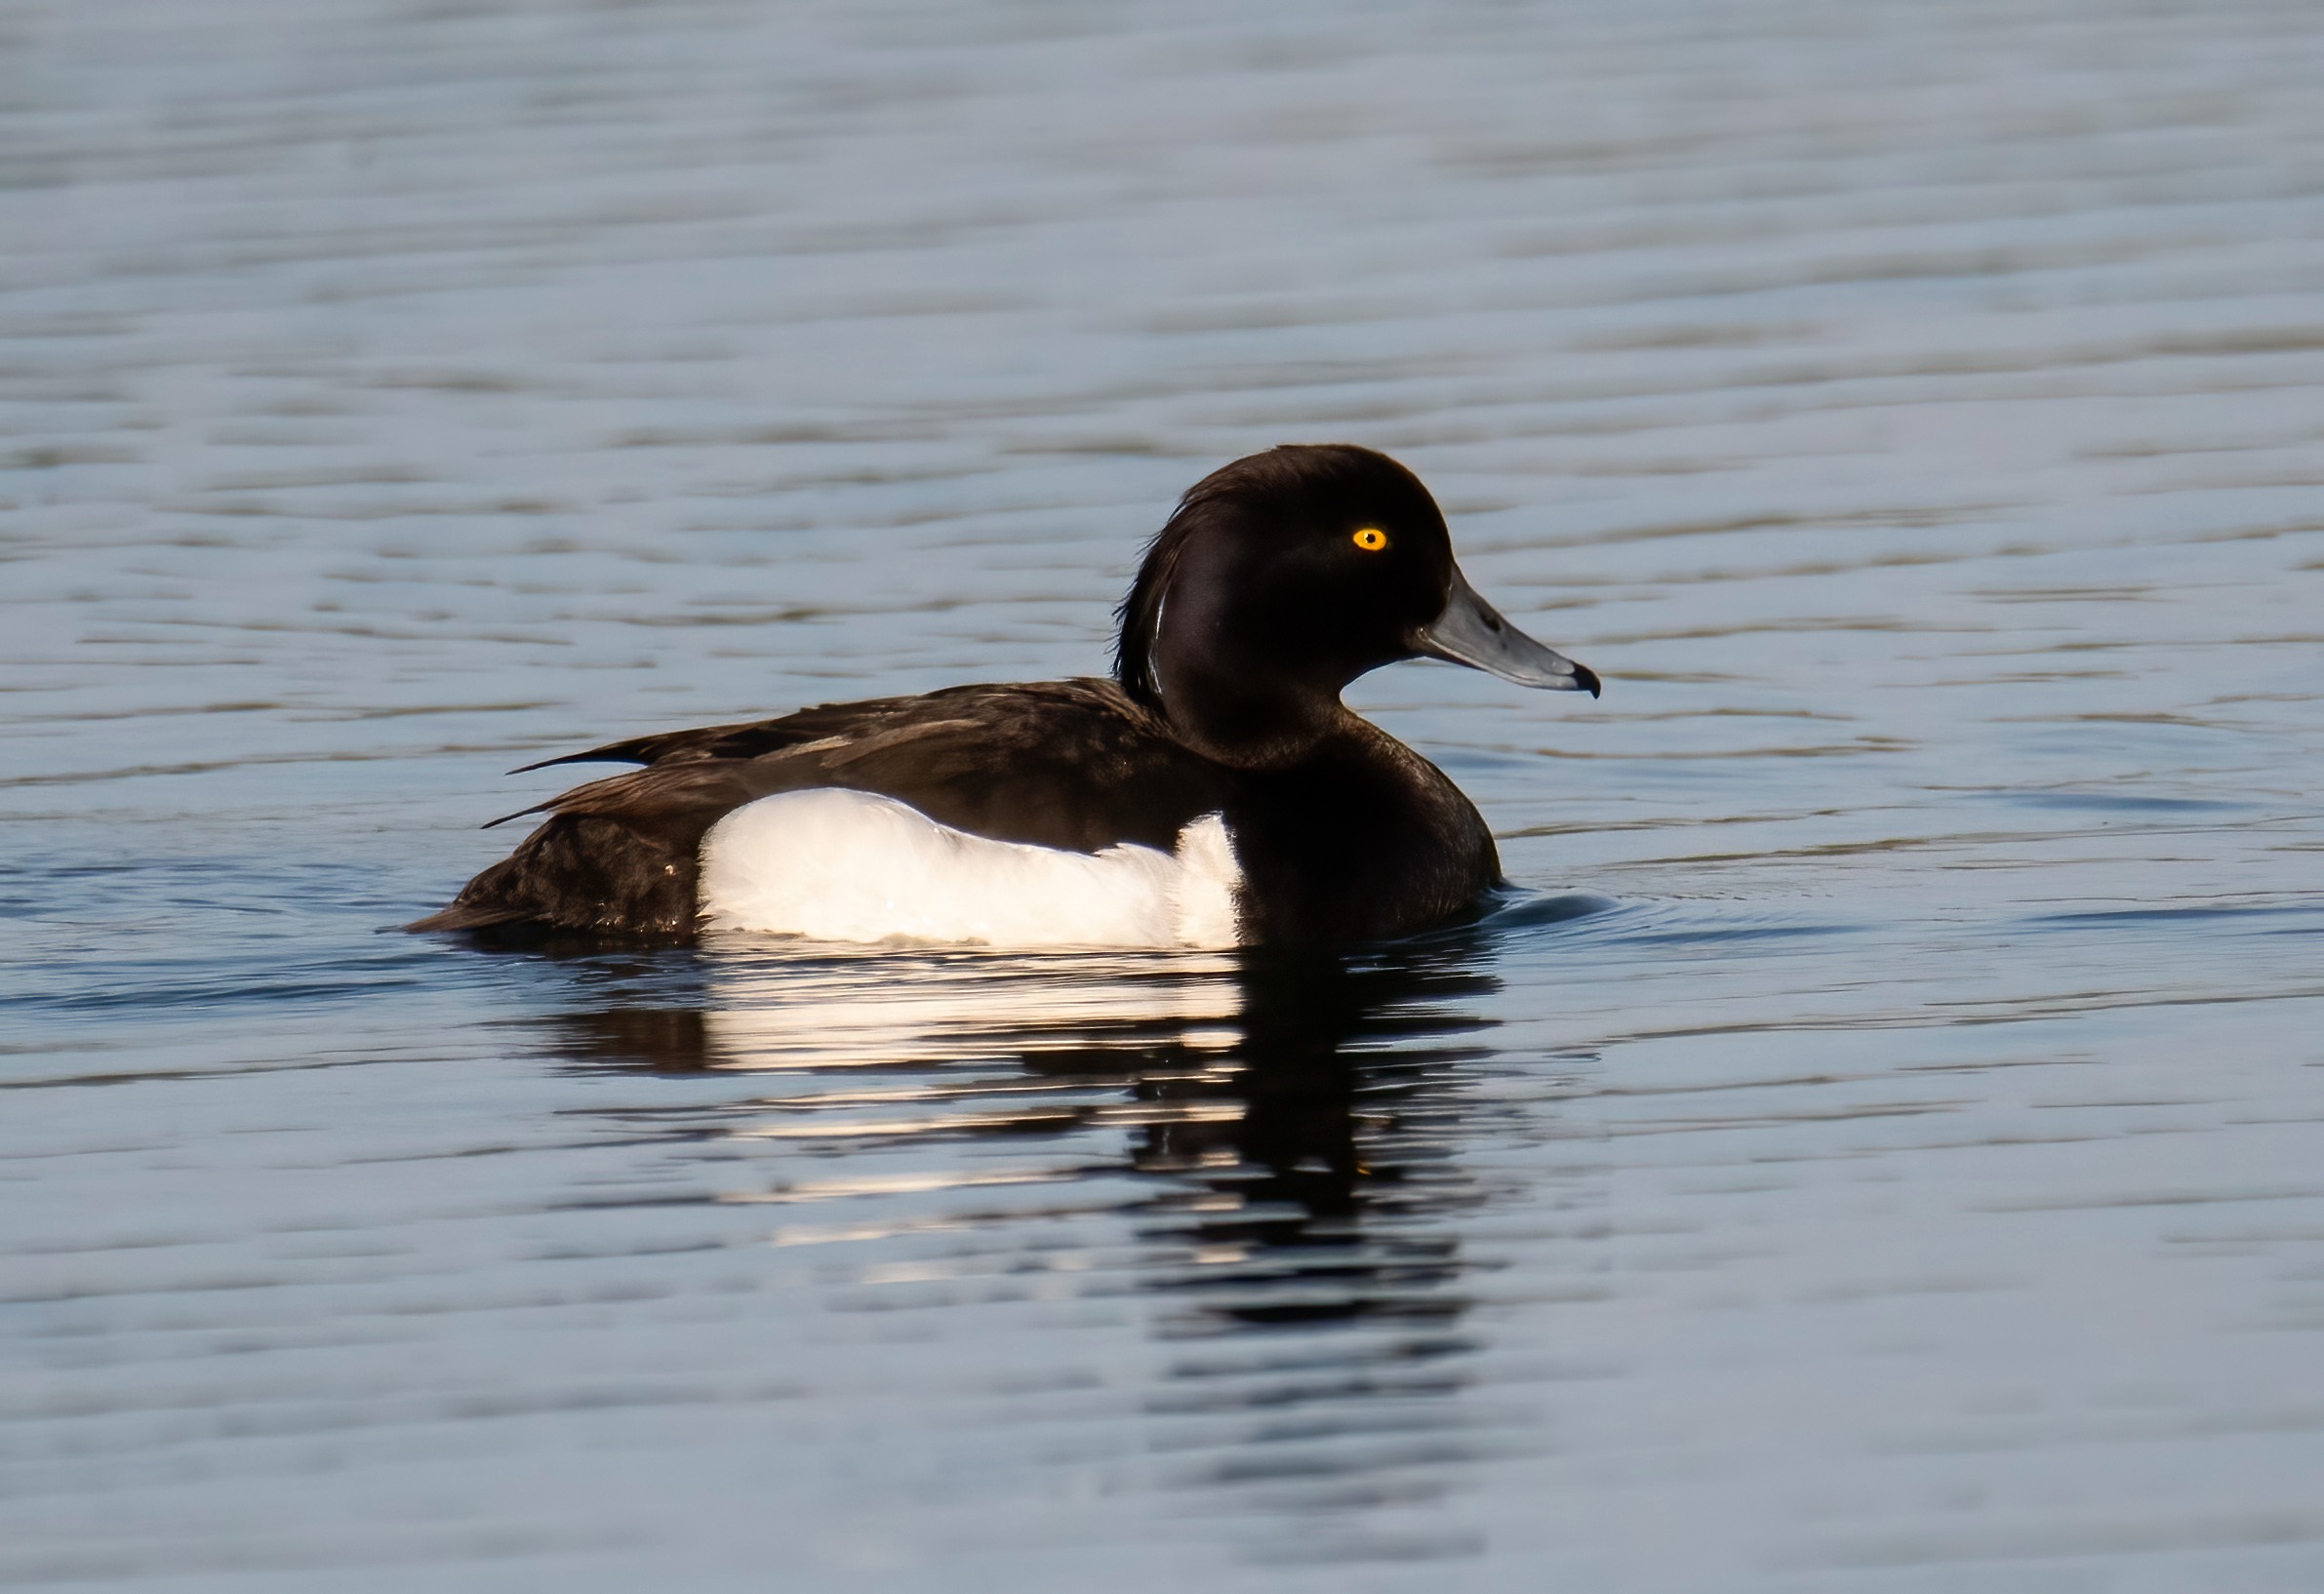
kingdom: Animalia
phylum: Chordata
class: Aves
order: Anseriformes
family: Anatidae
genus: Aythya
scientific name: Aythya fuligula
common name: Troldand
